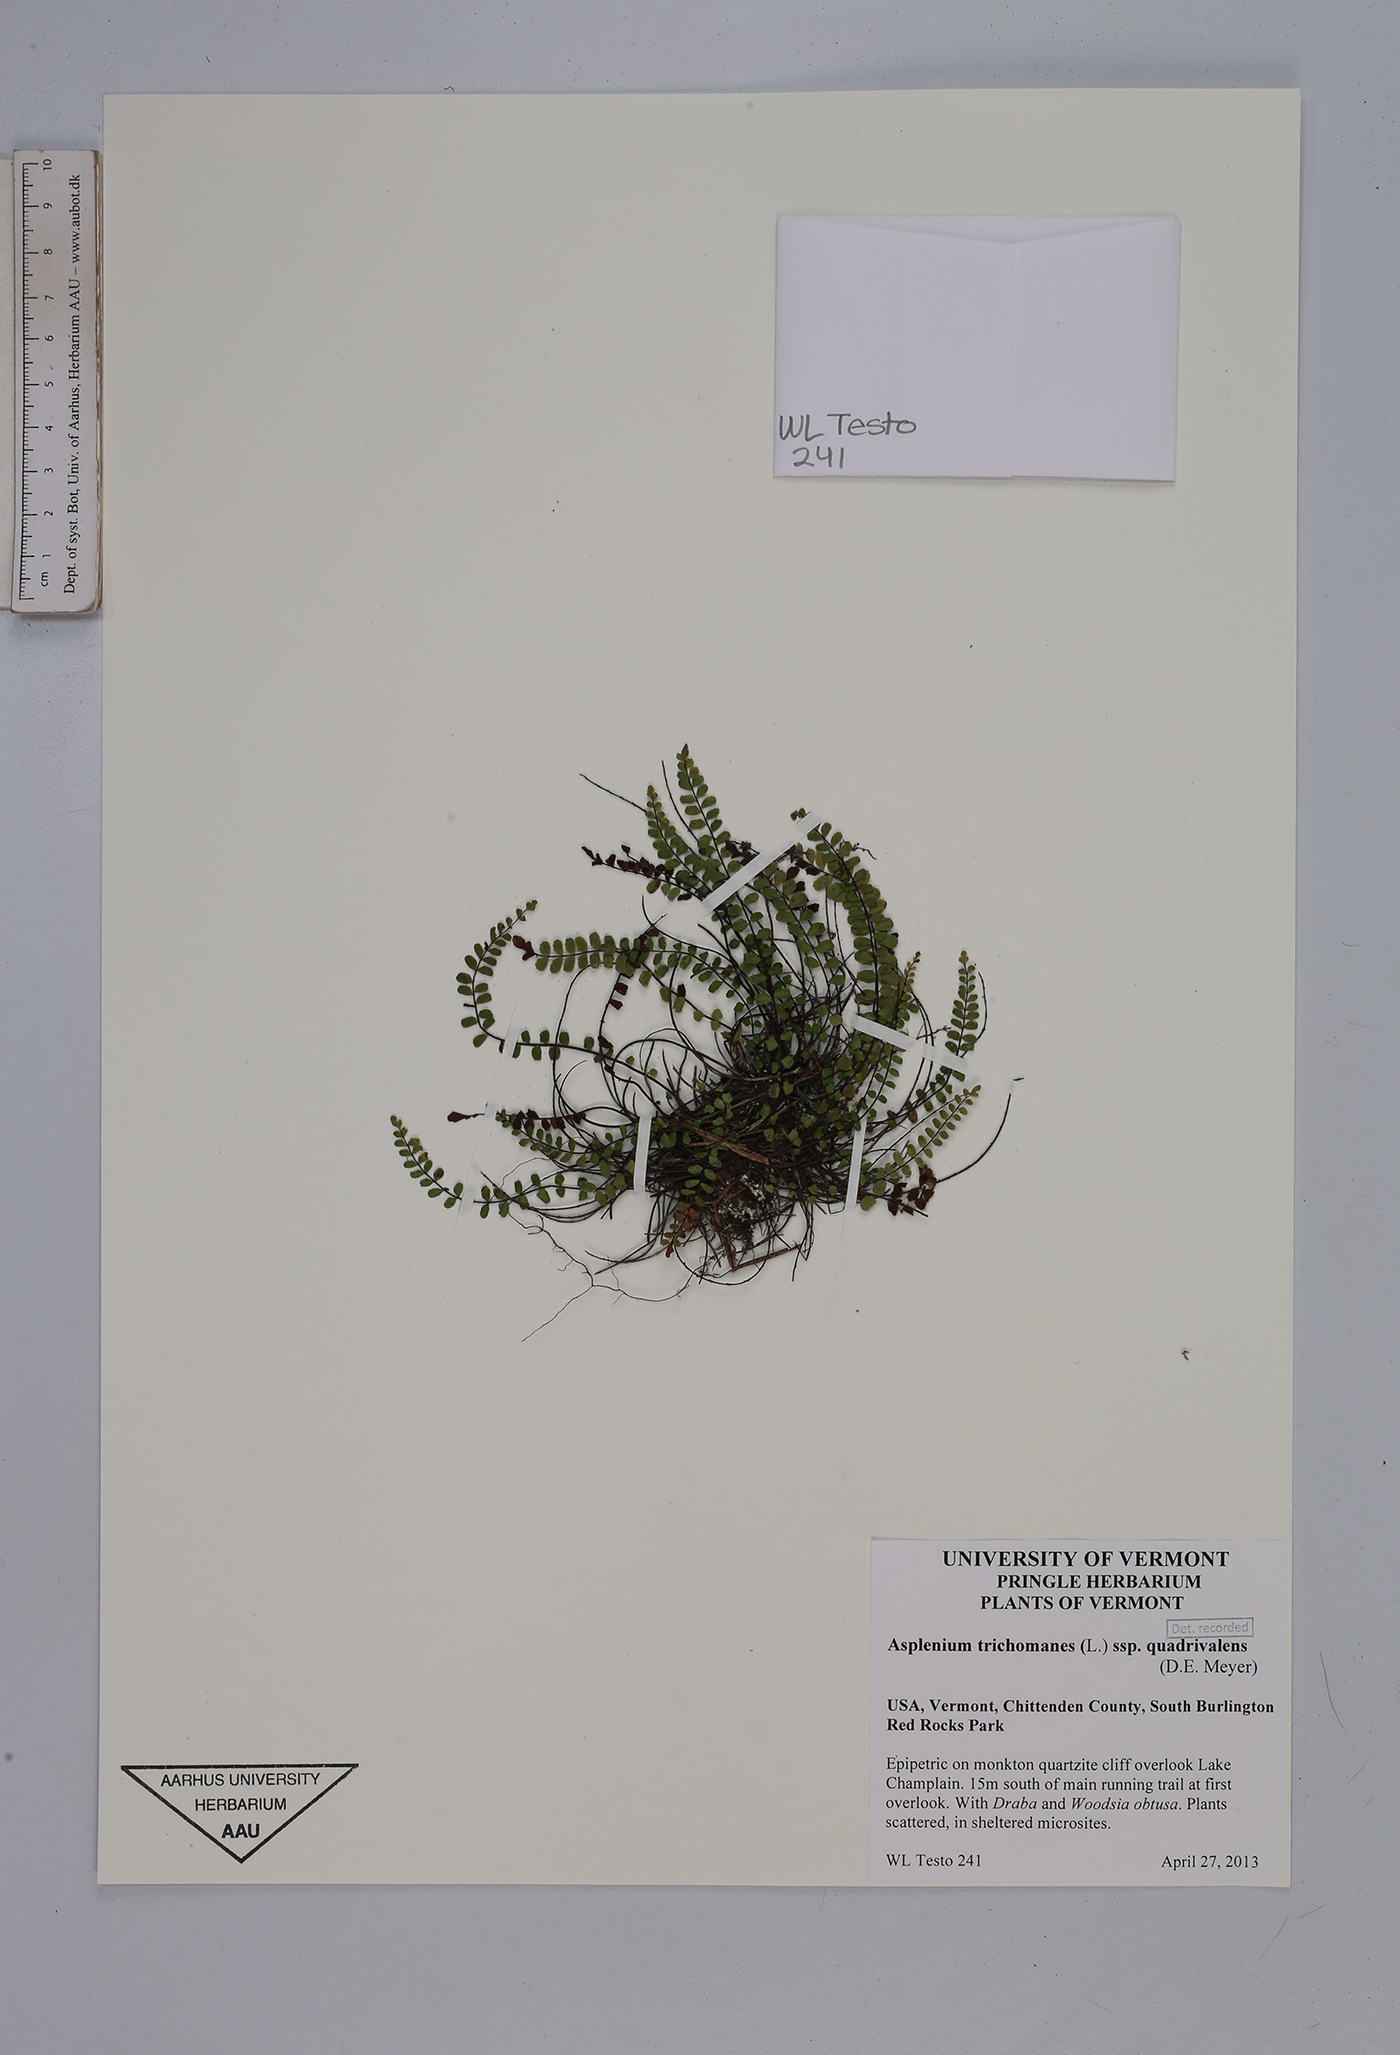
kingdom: Plantae
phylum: Tracheophyta
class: Polypodiopsida
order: Polypodiales
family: Aspleniaceae
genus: Asplenium
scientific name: Asplenium quadrivalens
